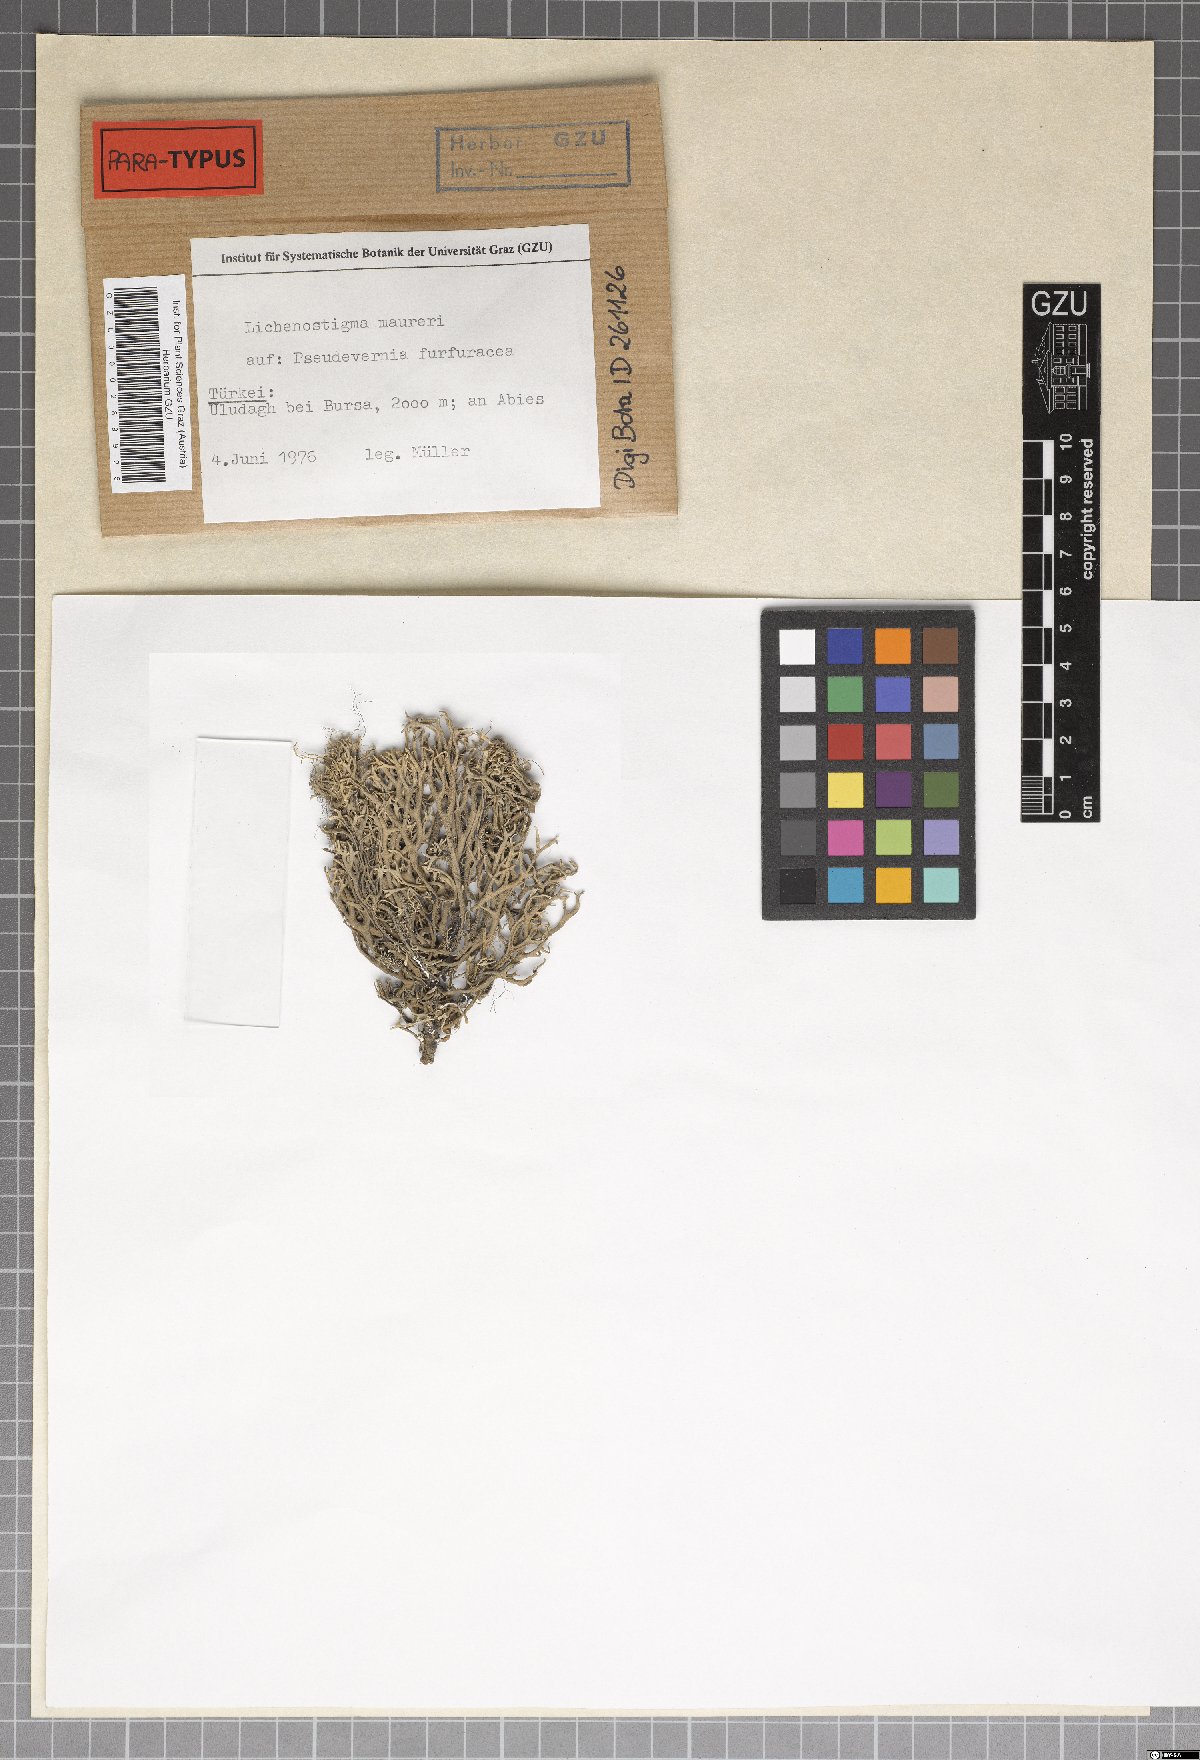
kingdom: Fungi
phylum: Ascomycota
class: Arthoniomycetes
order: Lichenostigmatales
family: Phaeococcomycetaceae
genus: Lichenostigma
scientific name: Lichenostigma maureri
